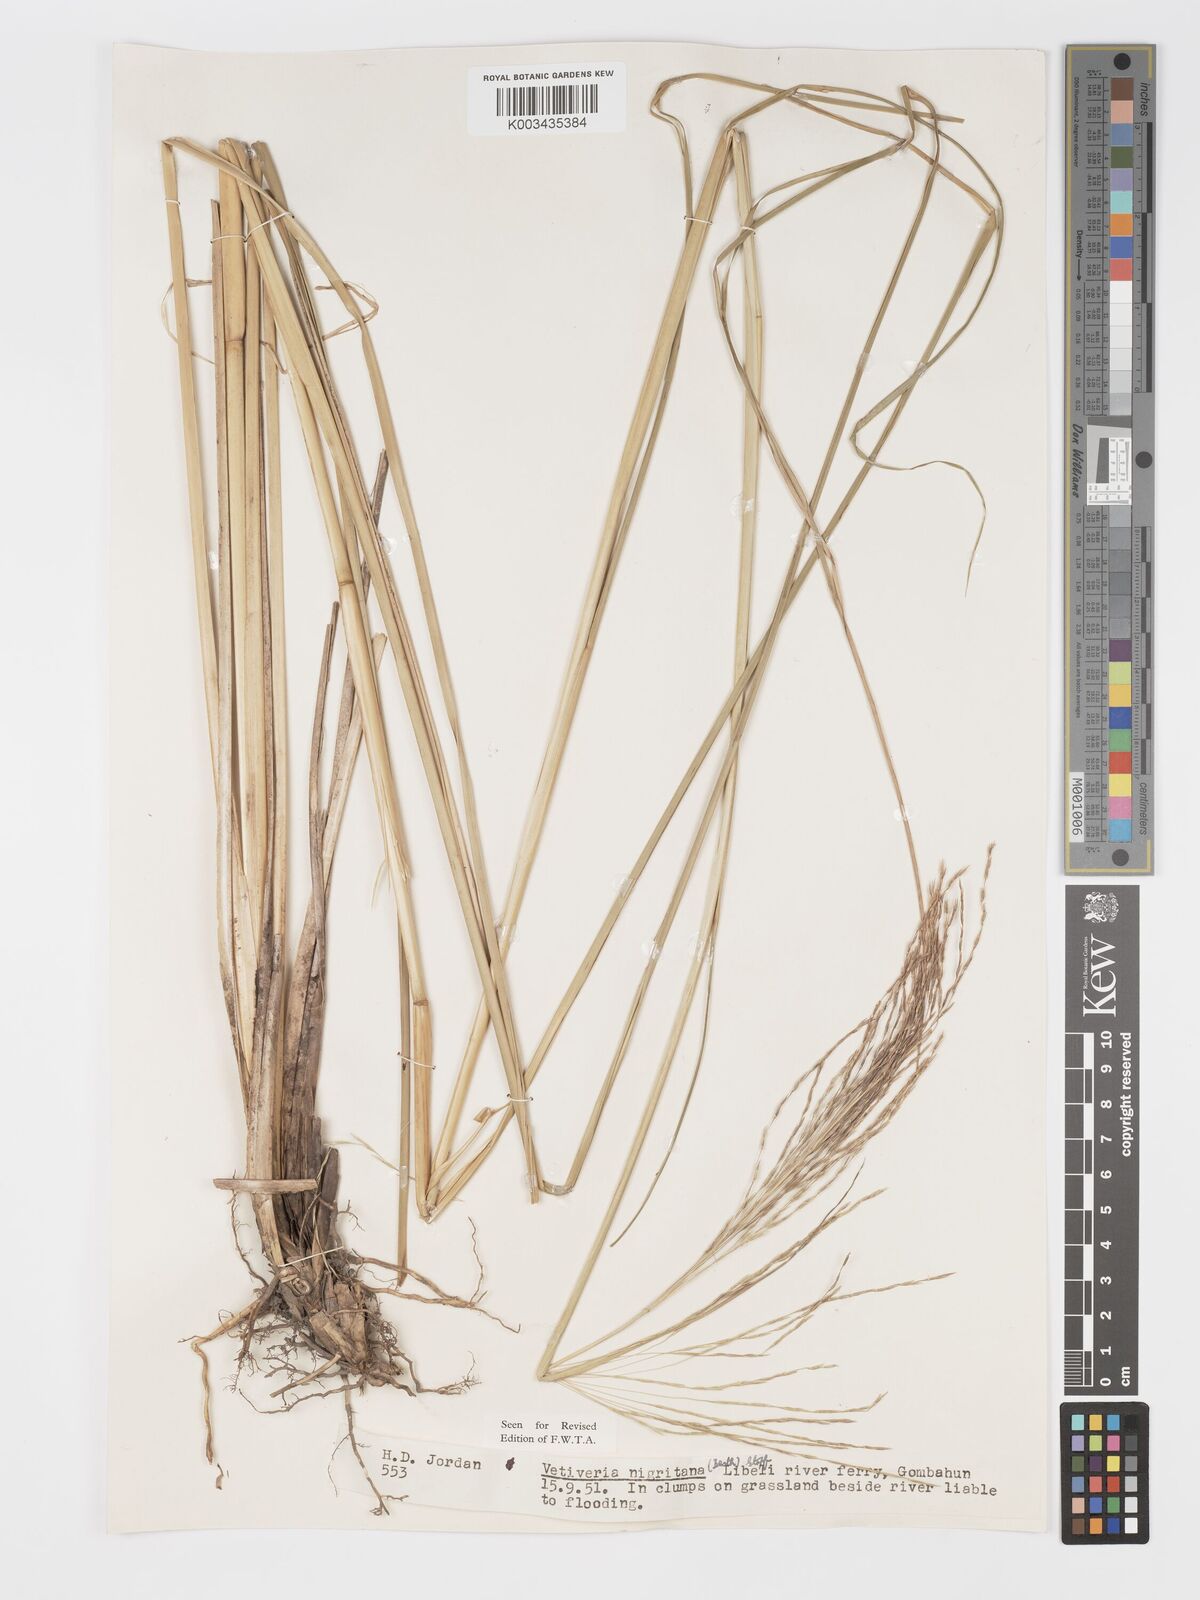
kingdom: Plantae
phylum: Tracheophyta
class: Liliopsida
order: Poales
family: Poaceae
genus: Chrysopogon
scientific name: Chrysopogon nigritanus
